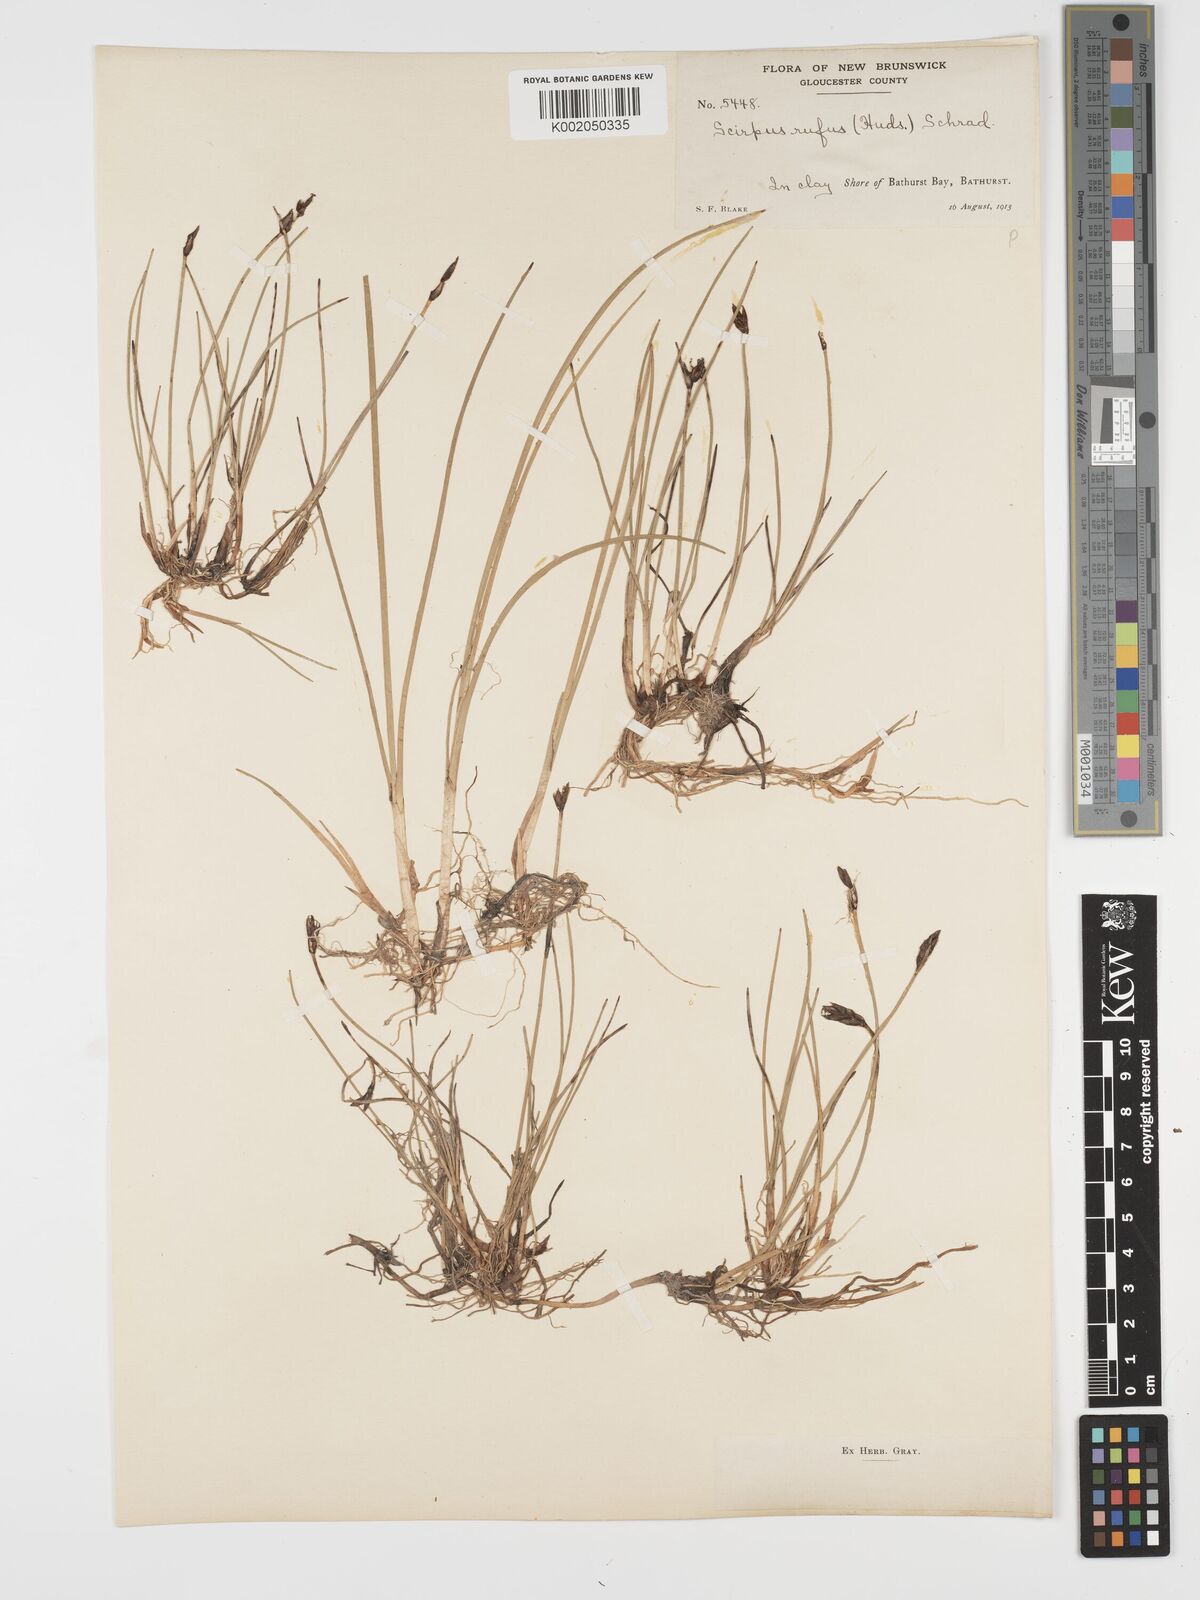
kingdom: Plantae
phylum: Tracheophyta
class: Liliopsida
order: Poales
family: Cyperaceae
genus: Blysmus
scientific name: Blysmus rufus
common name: Saltmarsh flat-sedge
